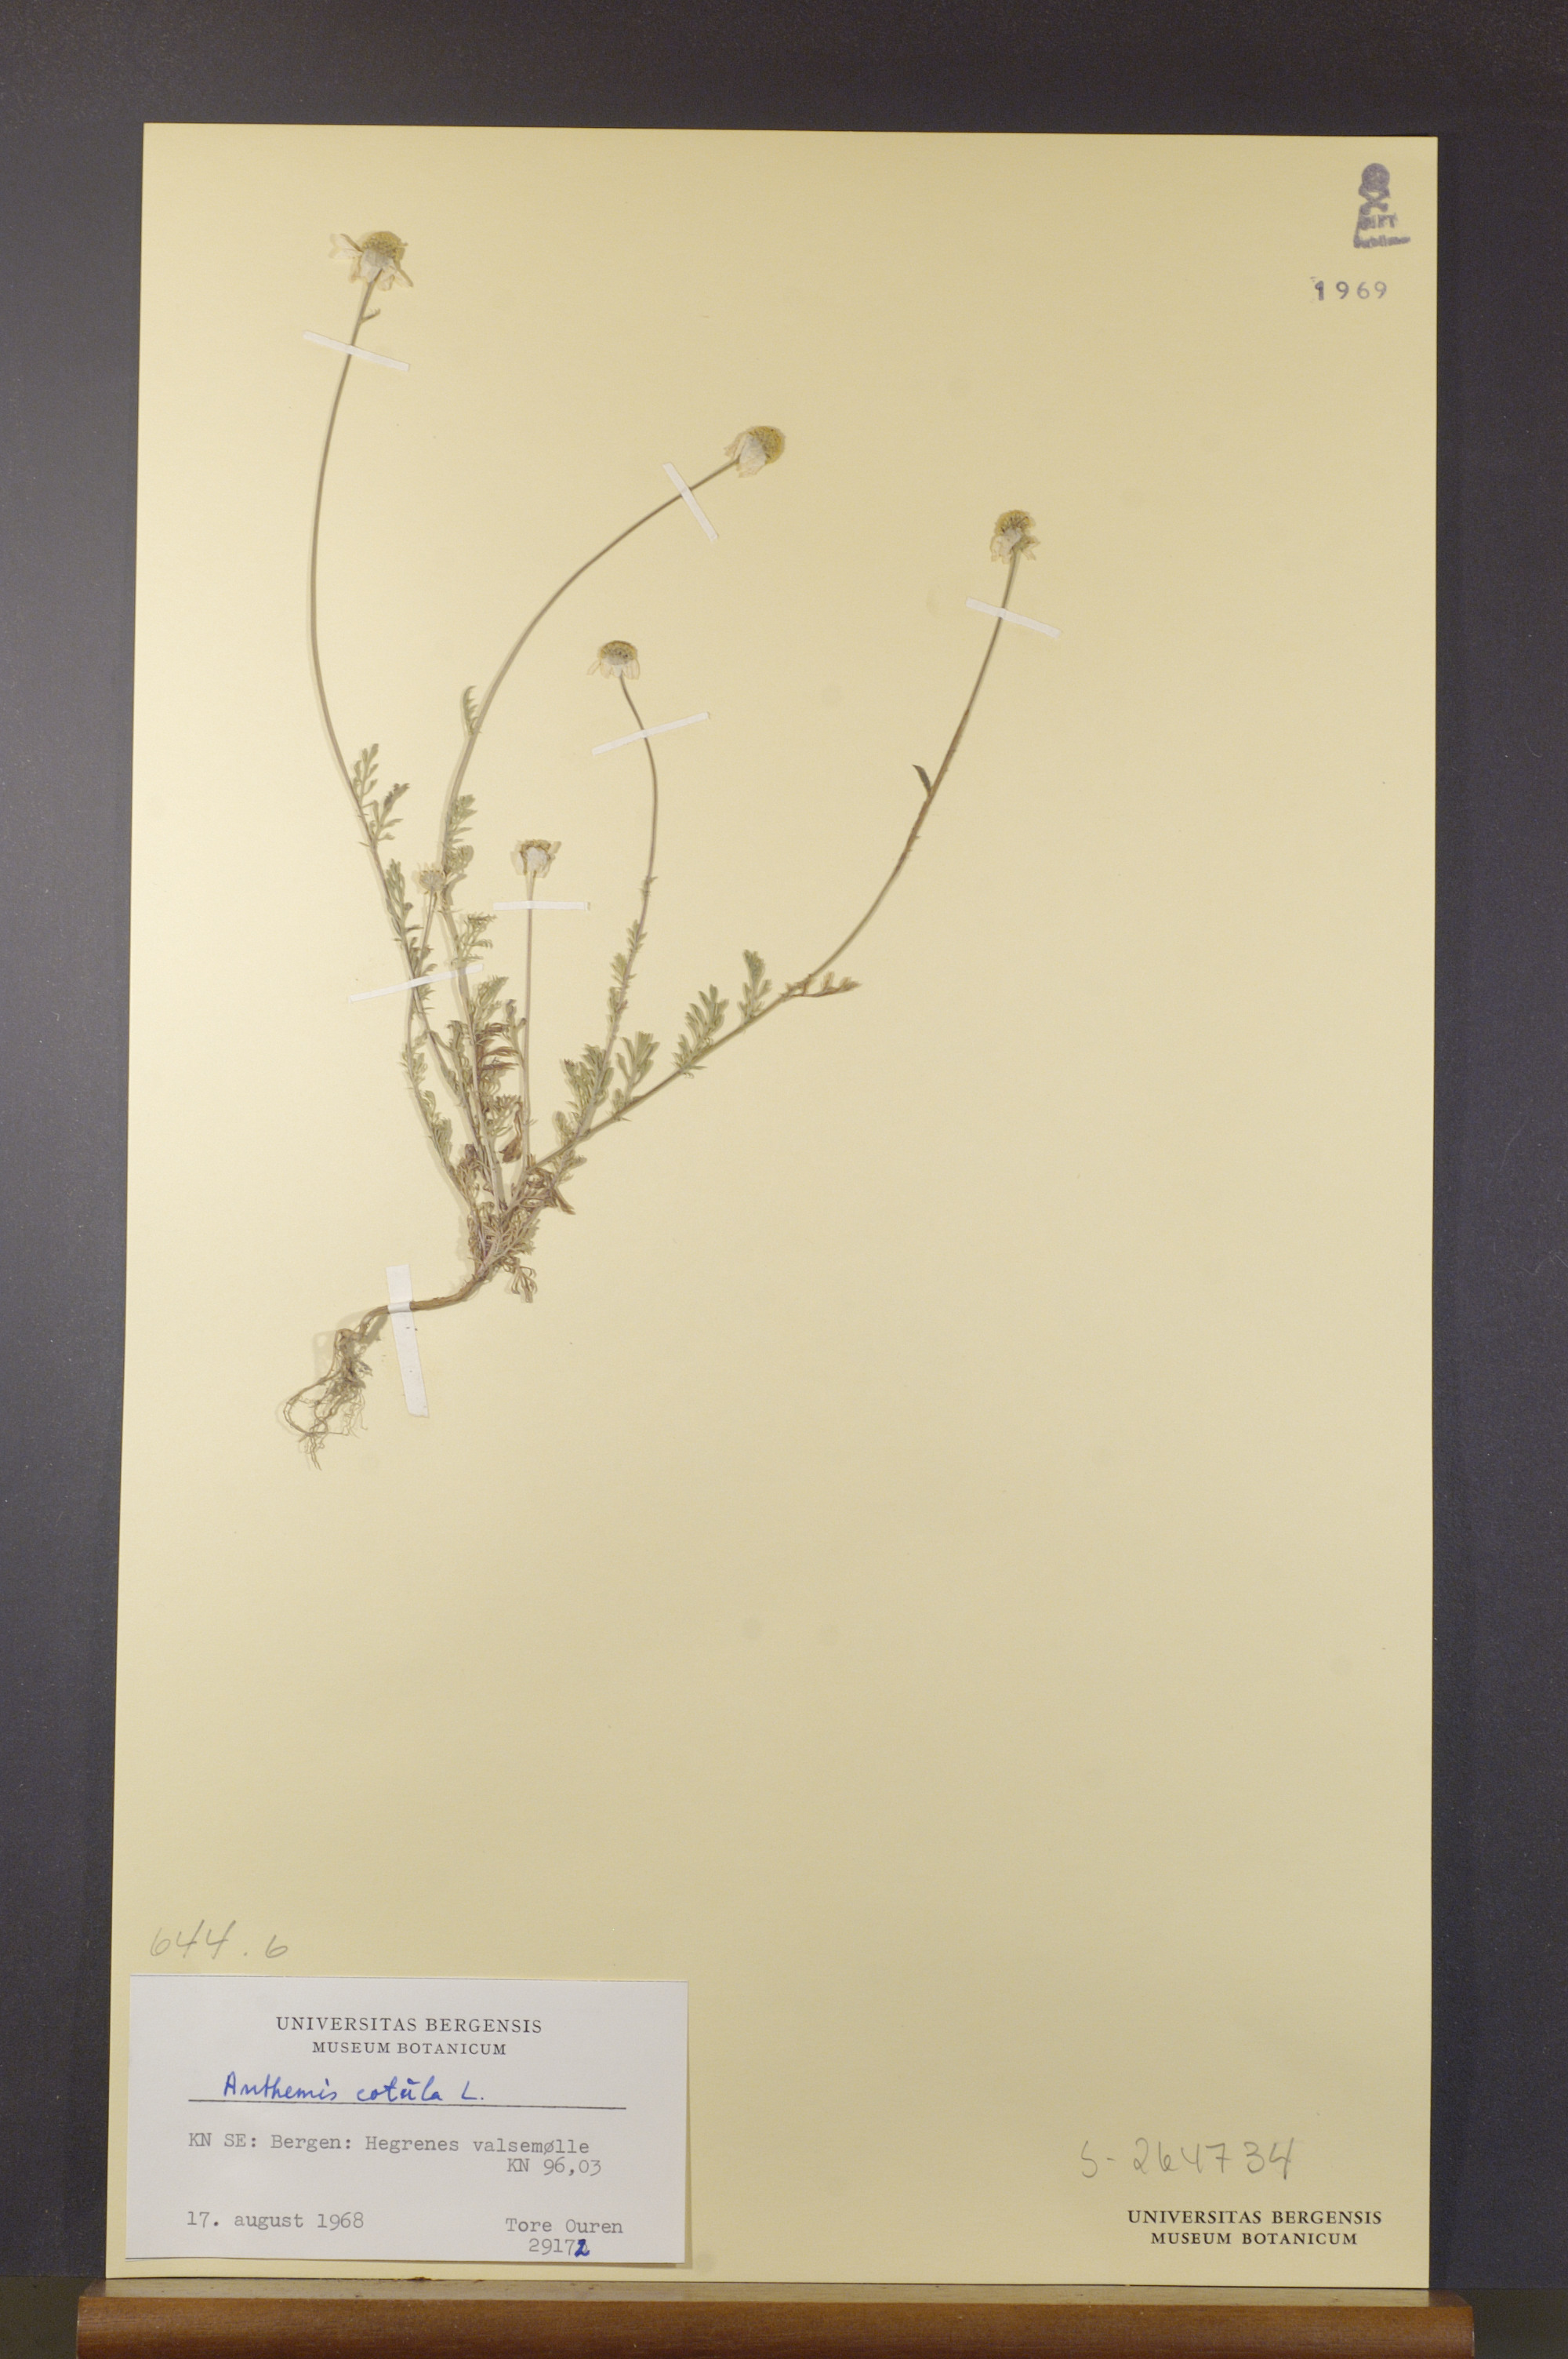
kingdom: Plantae
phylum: Tracheophyta
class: Magnoliopsida
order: Asterales
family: Asteraceae
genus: Anthemis
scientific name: Anthemis cotula
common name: Stinking chamomile
